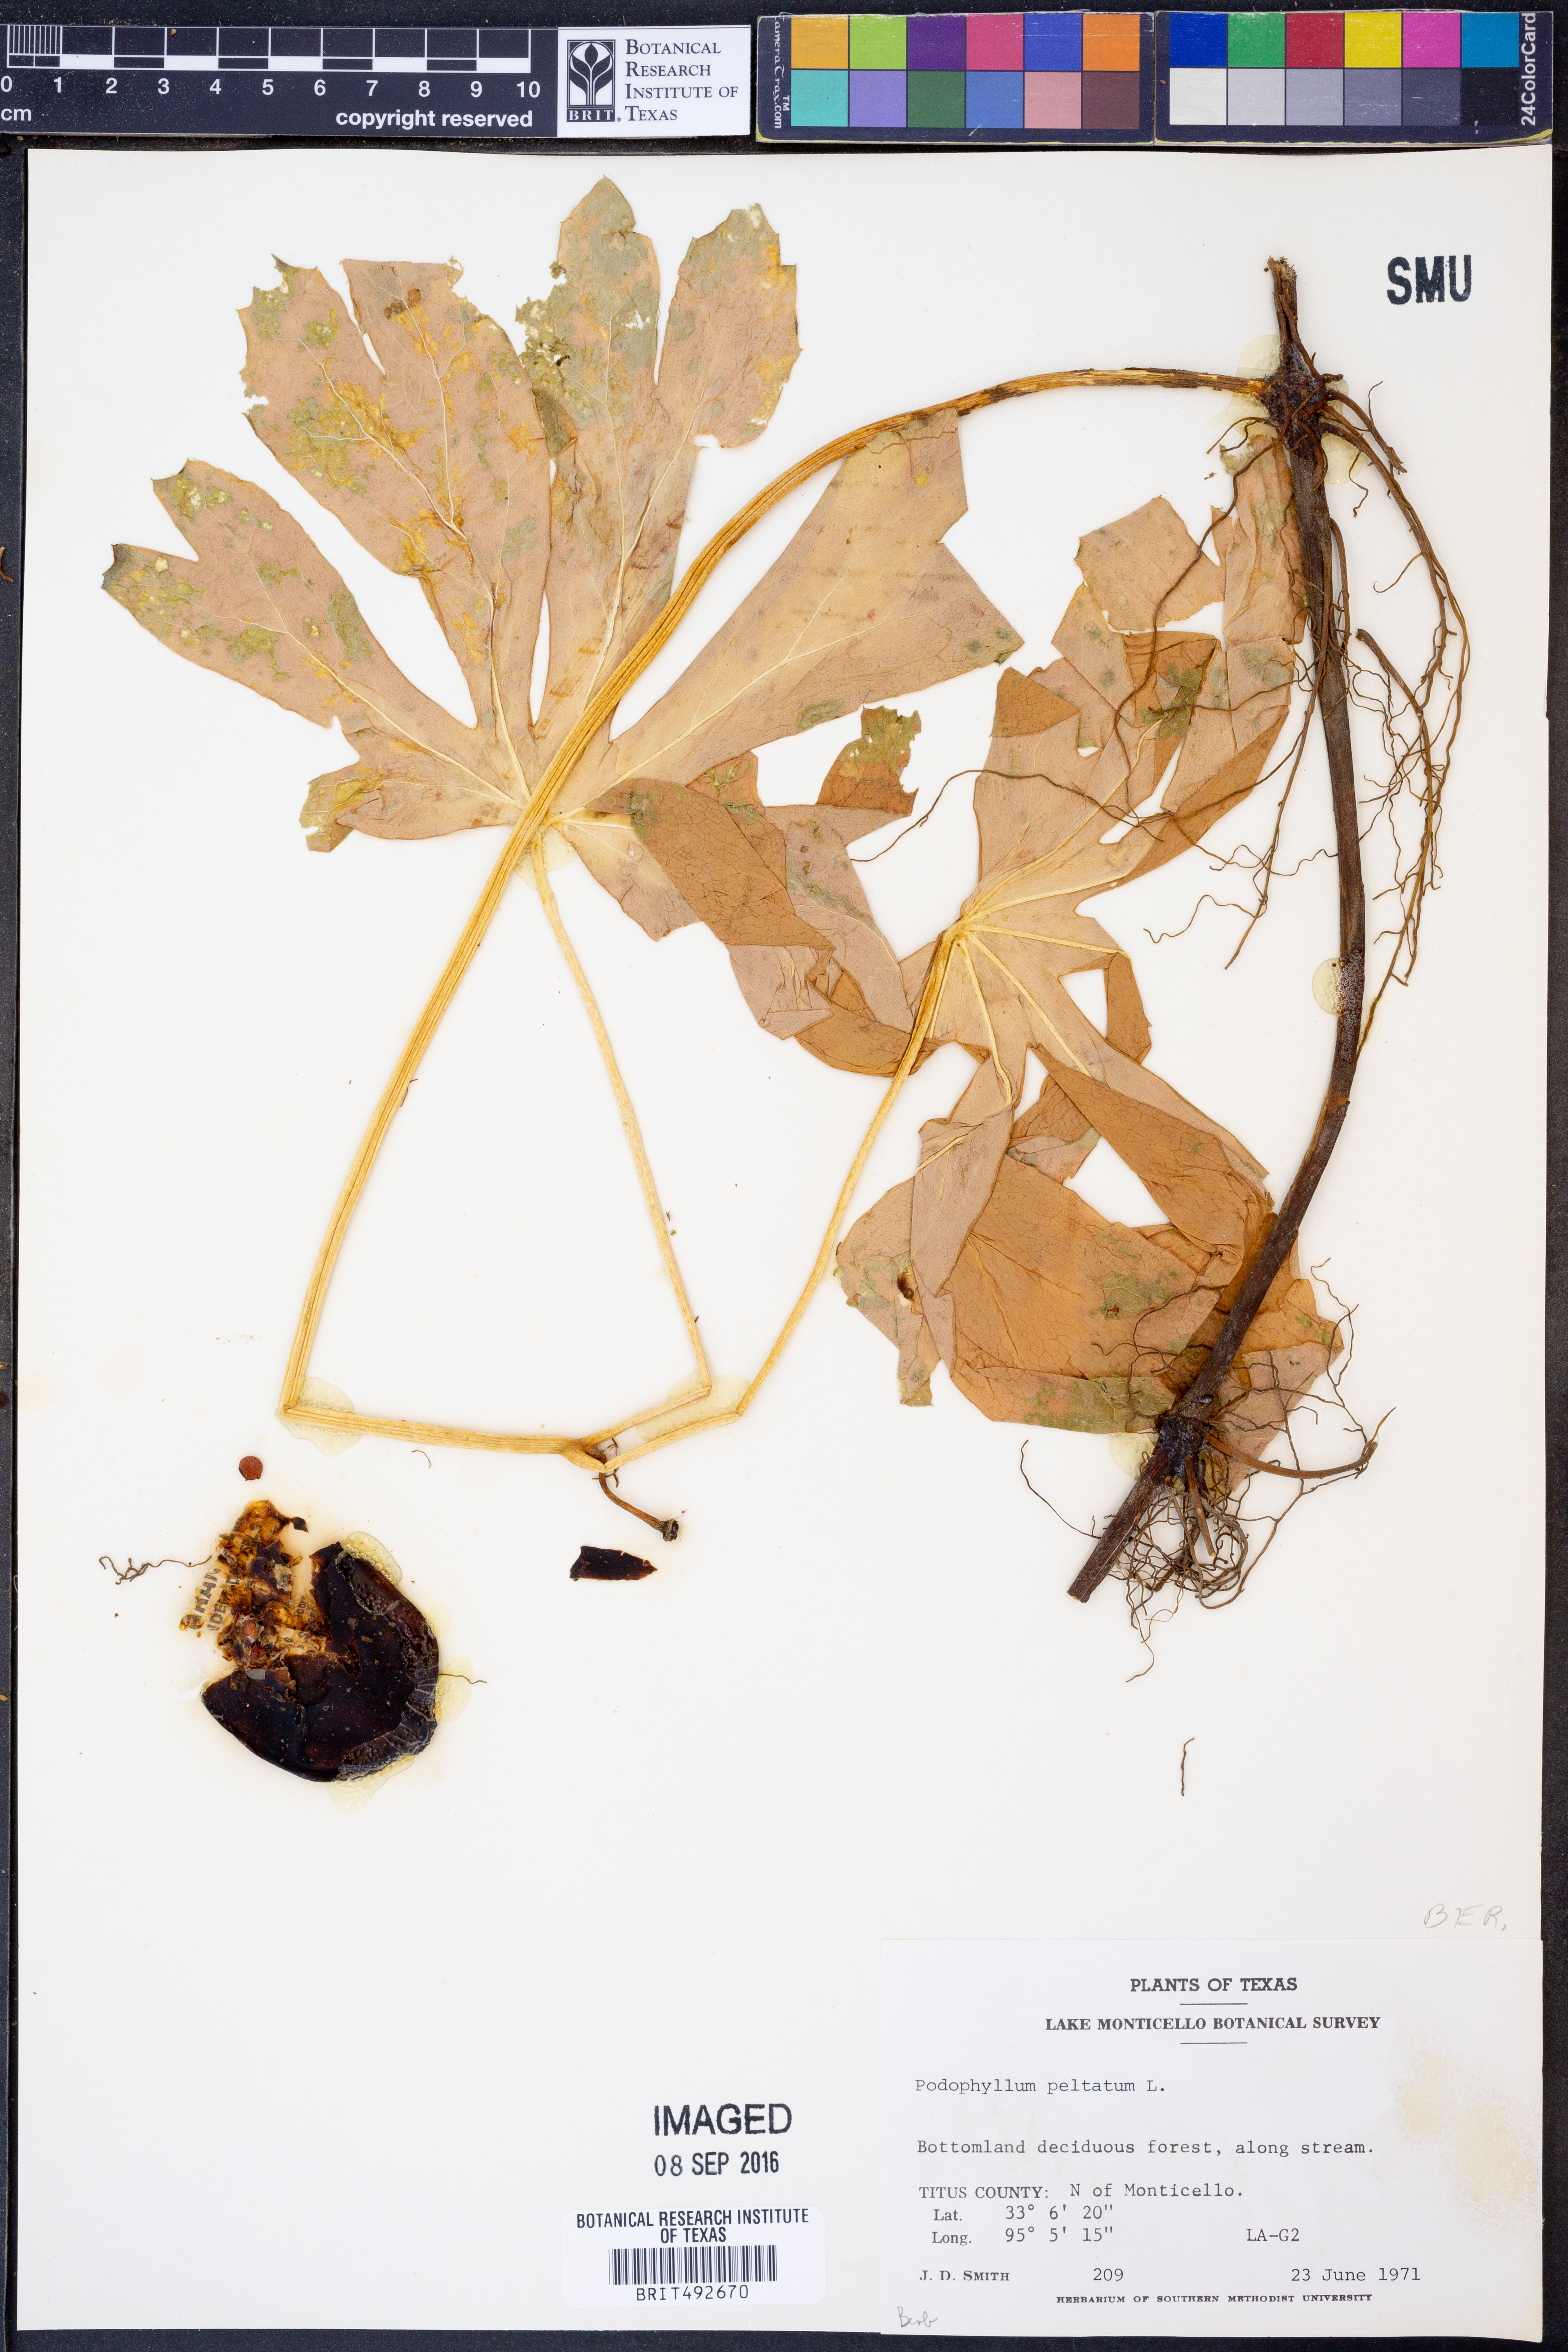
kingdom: Plantae
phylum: Tracheophyta
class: Magnoliopsida
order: Ranunculales
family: Berberidaceae
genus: Podophyllum
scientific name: Podophyllum peltatum
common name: Wild mandrake
